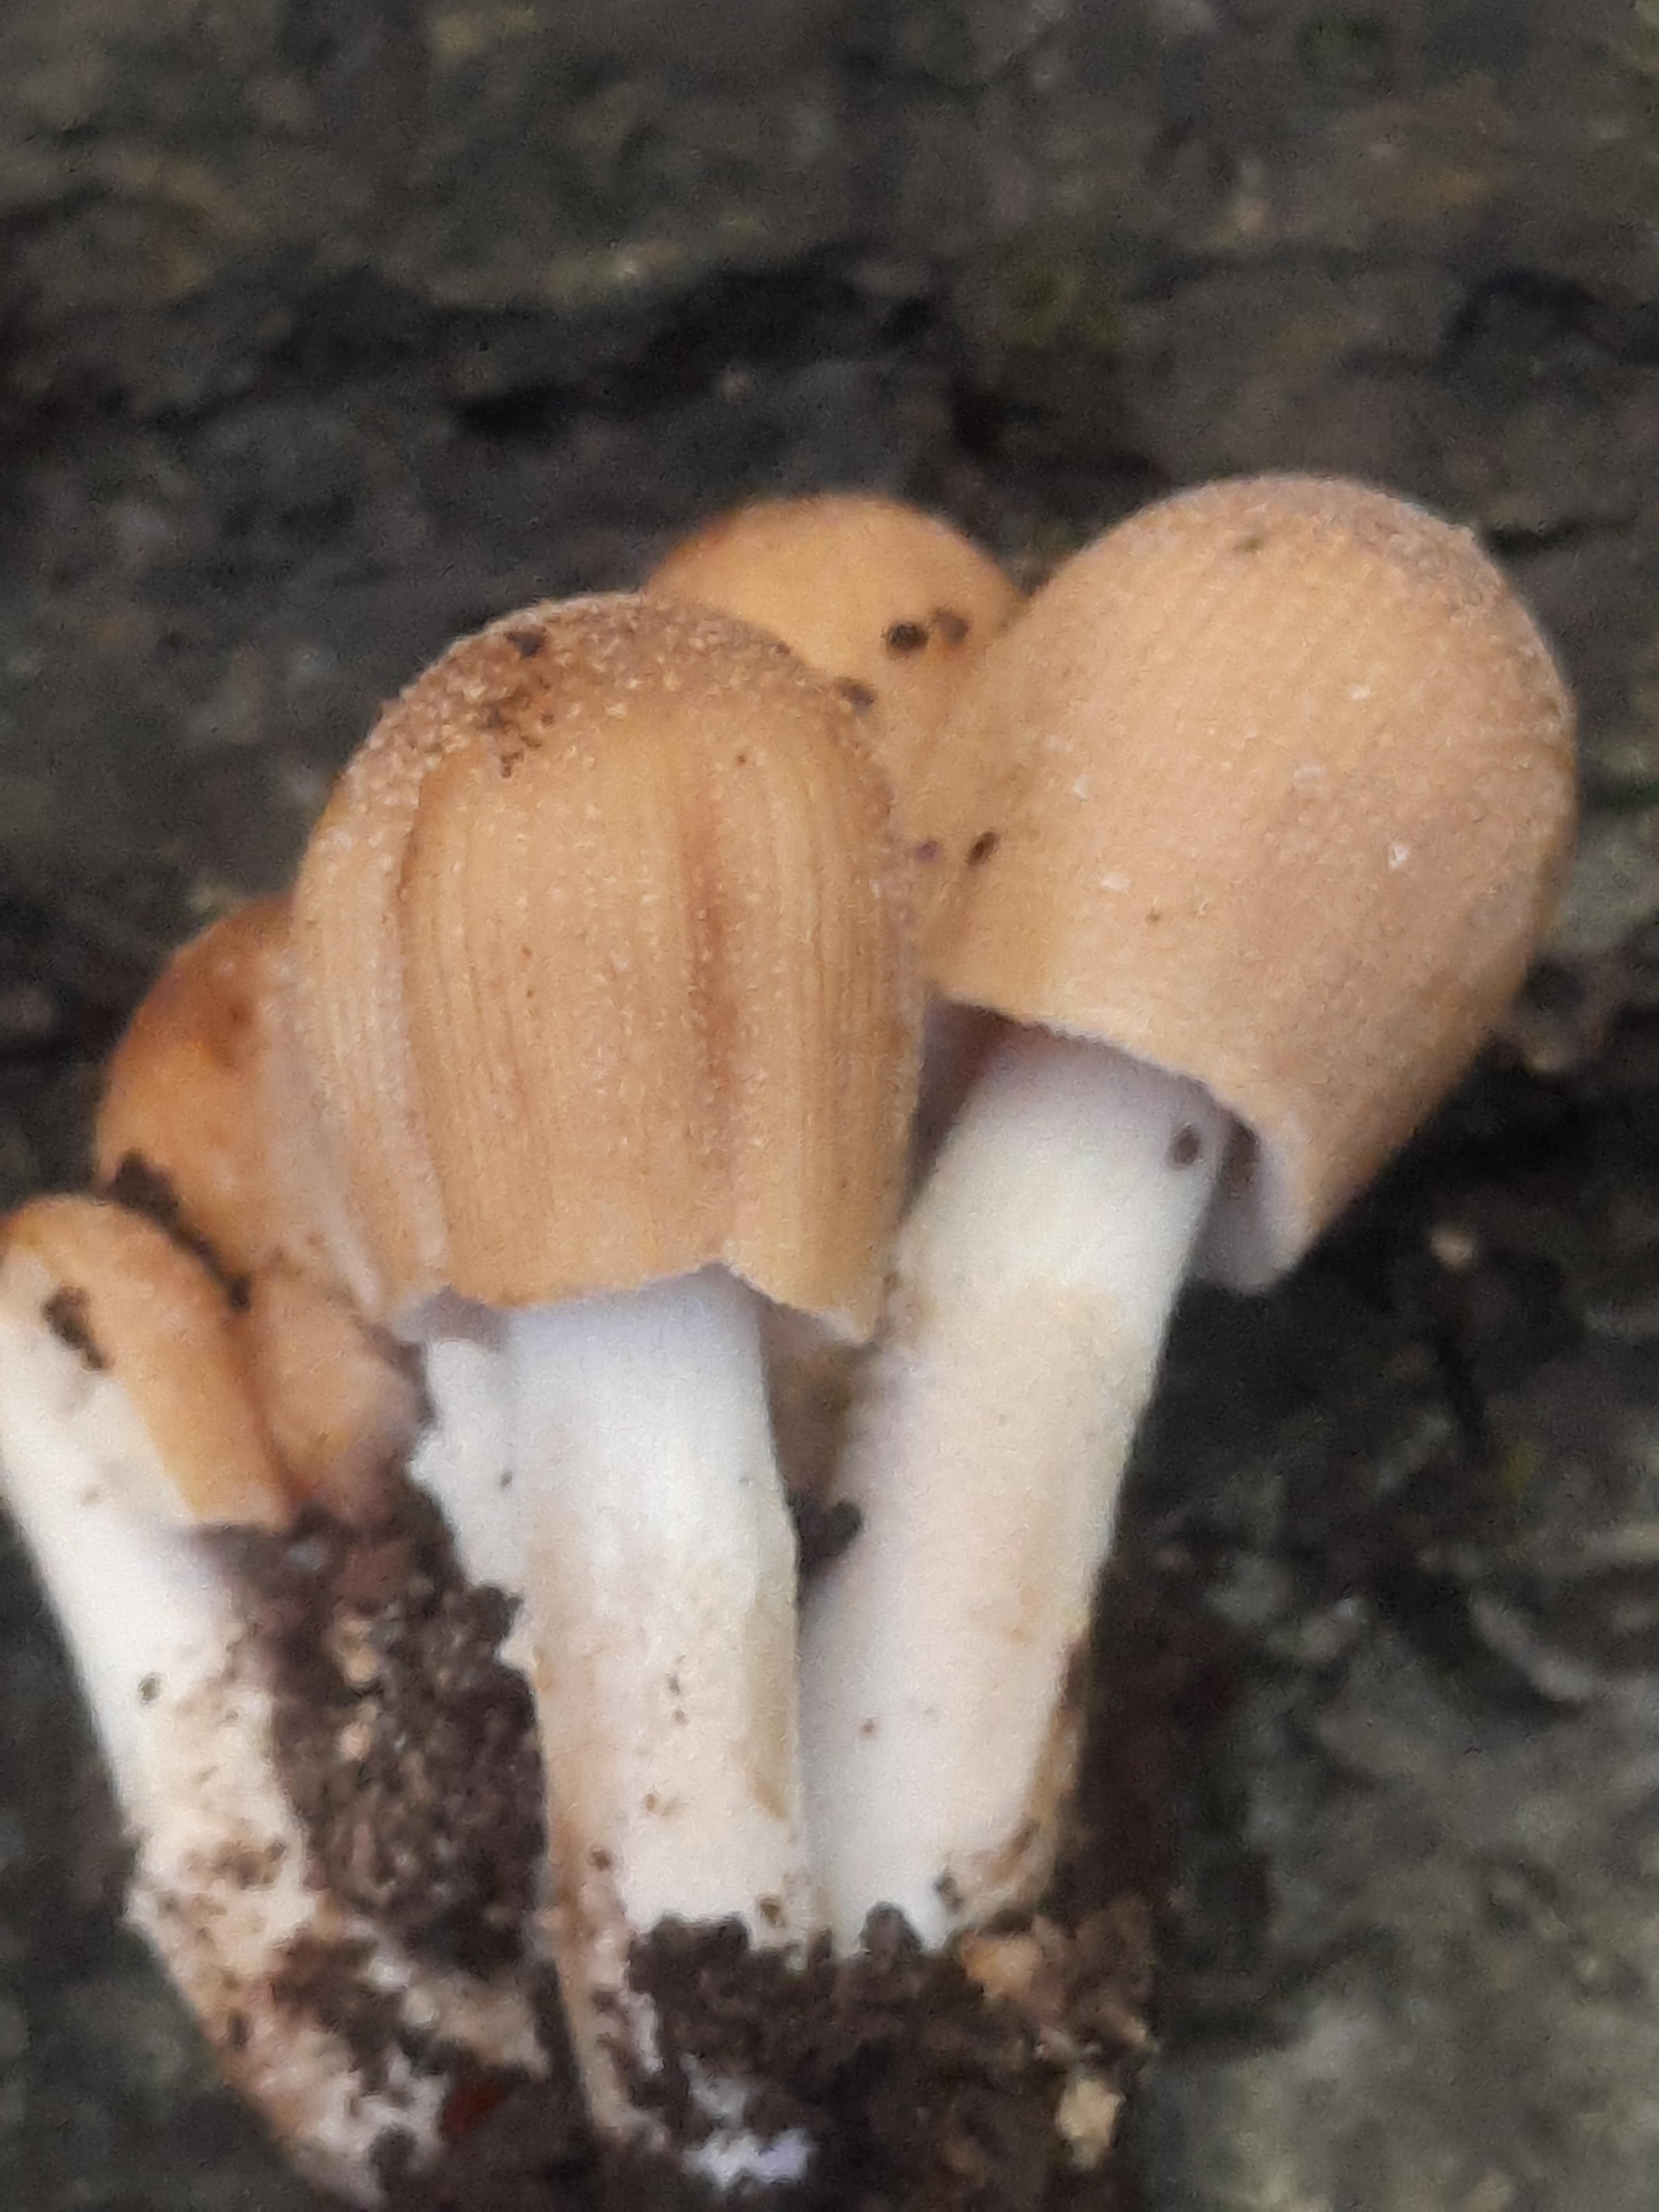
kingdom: Fungi
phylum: Basidiomycota
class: Agaricomycetes
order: Agaricales
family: Psathyrellaceae
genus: Coprinellus
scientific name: Coprinellus micaceus
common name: glimmer-blækhat
